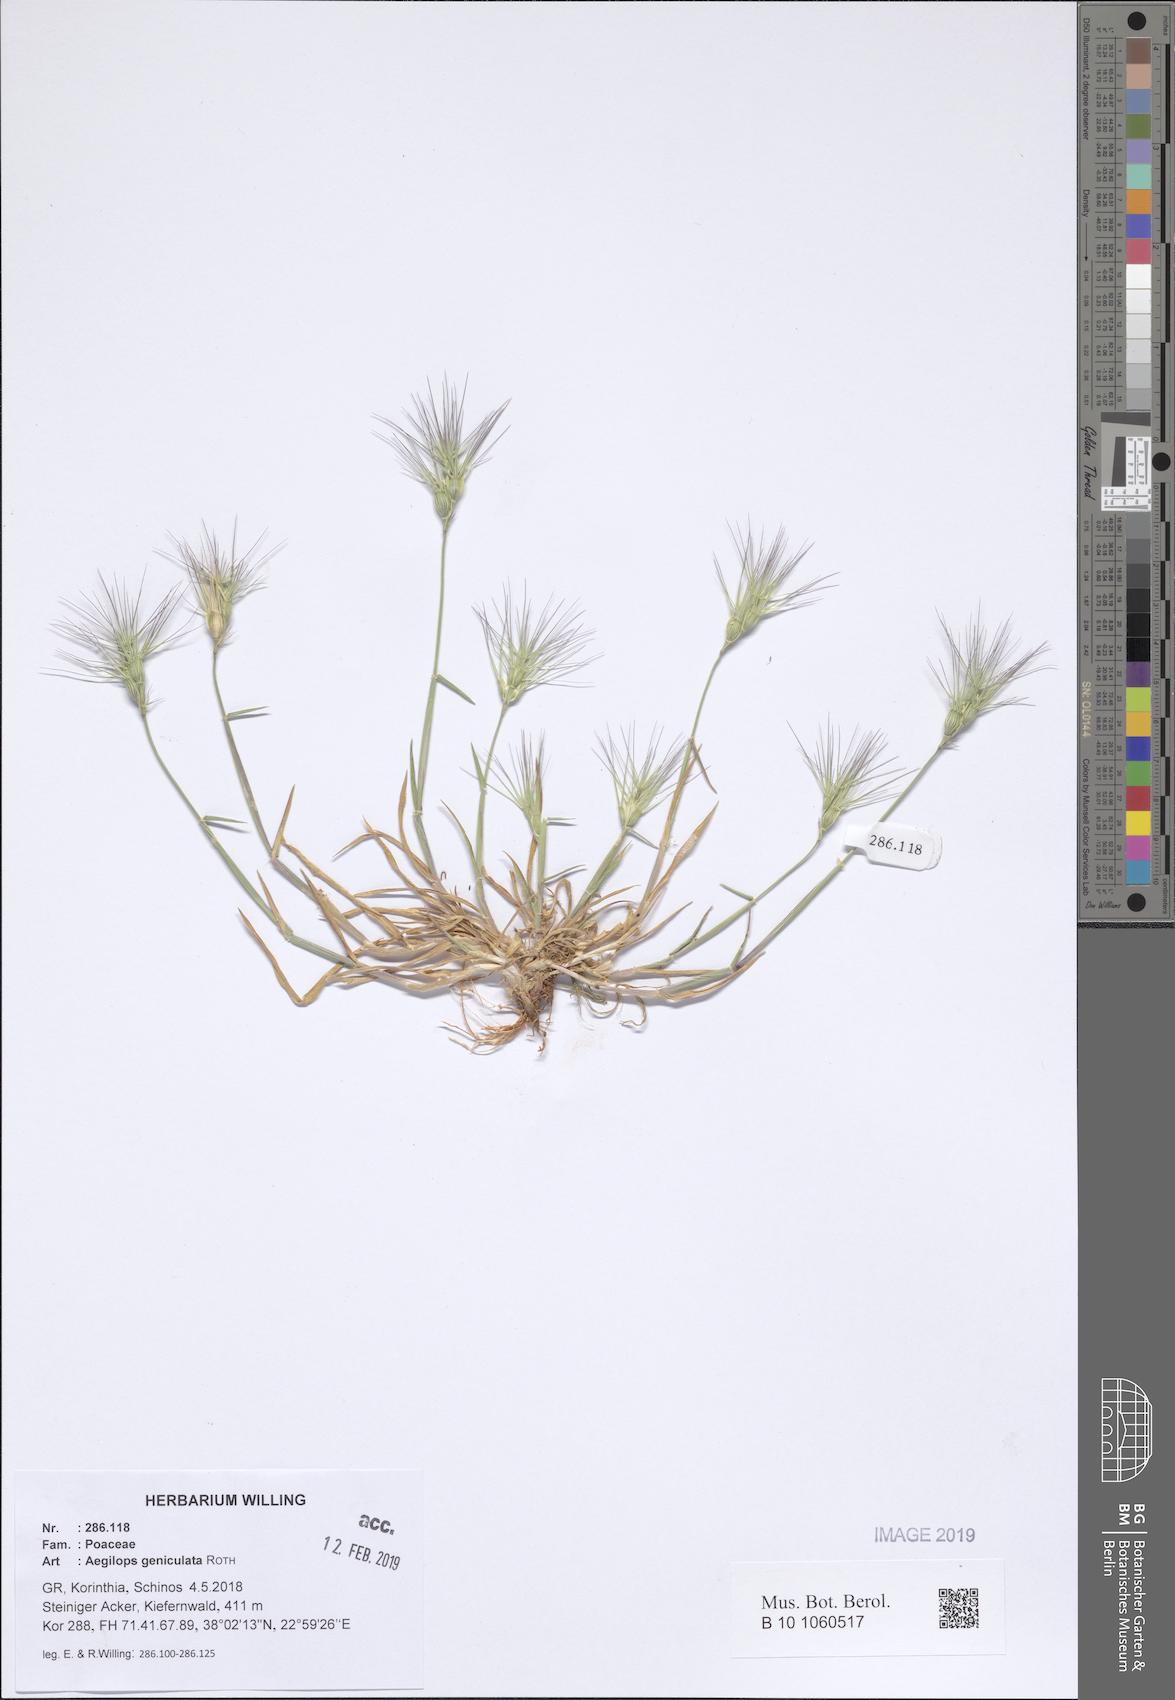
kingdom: Plantae
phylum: Tracheophyta
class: Liliopsida
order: Poales
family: Poaceae
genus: Aegilops
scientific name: Aegilops geniculata
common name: Ovate goat grass
